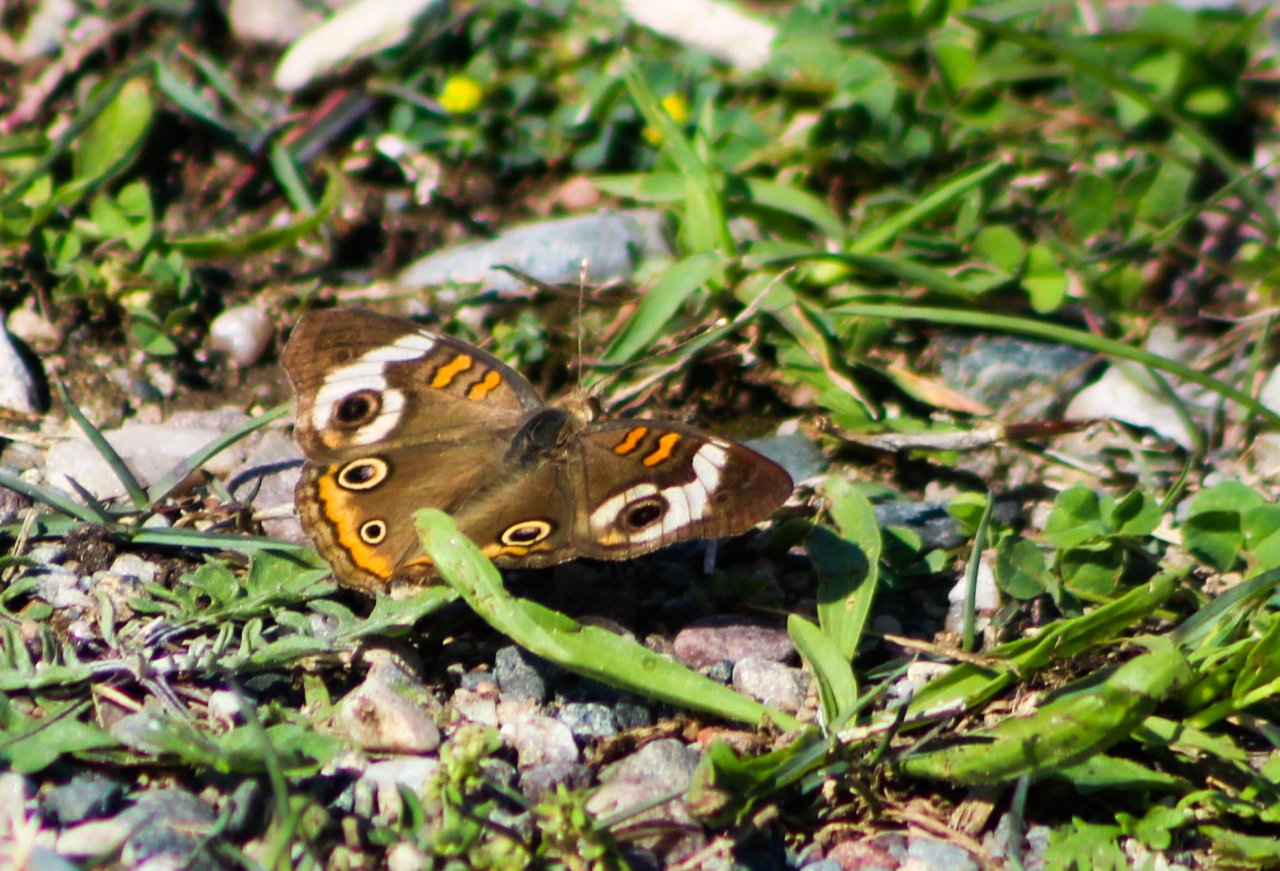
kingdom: Animalia
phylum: Arthropoda
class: Insecta
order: Lepidoptera
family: Nymphalidae
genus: Junonia
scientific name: Junonia coenia
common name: Common Buckeye
